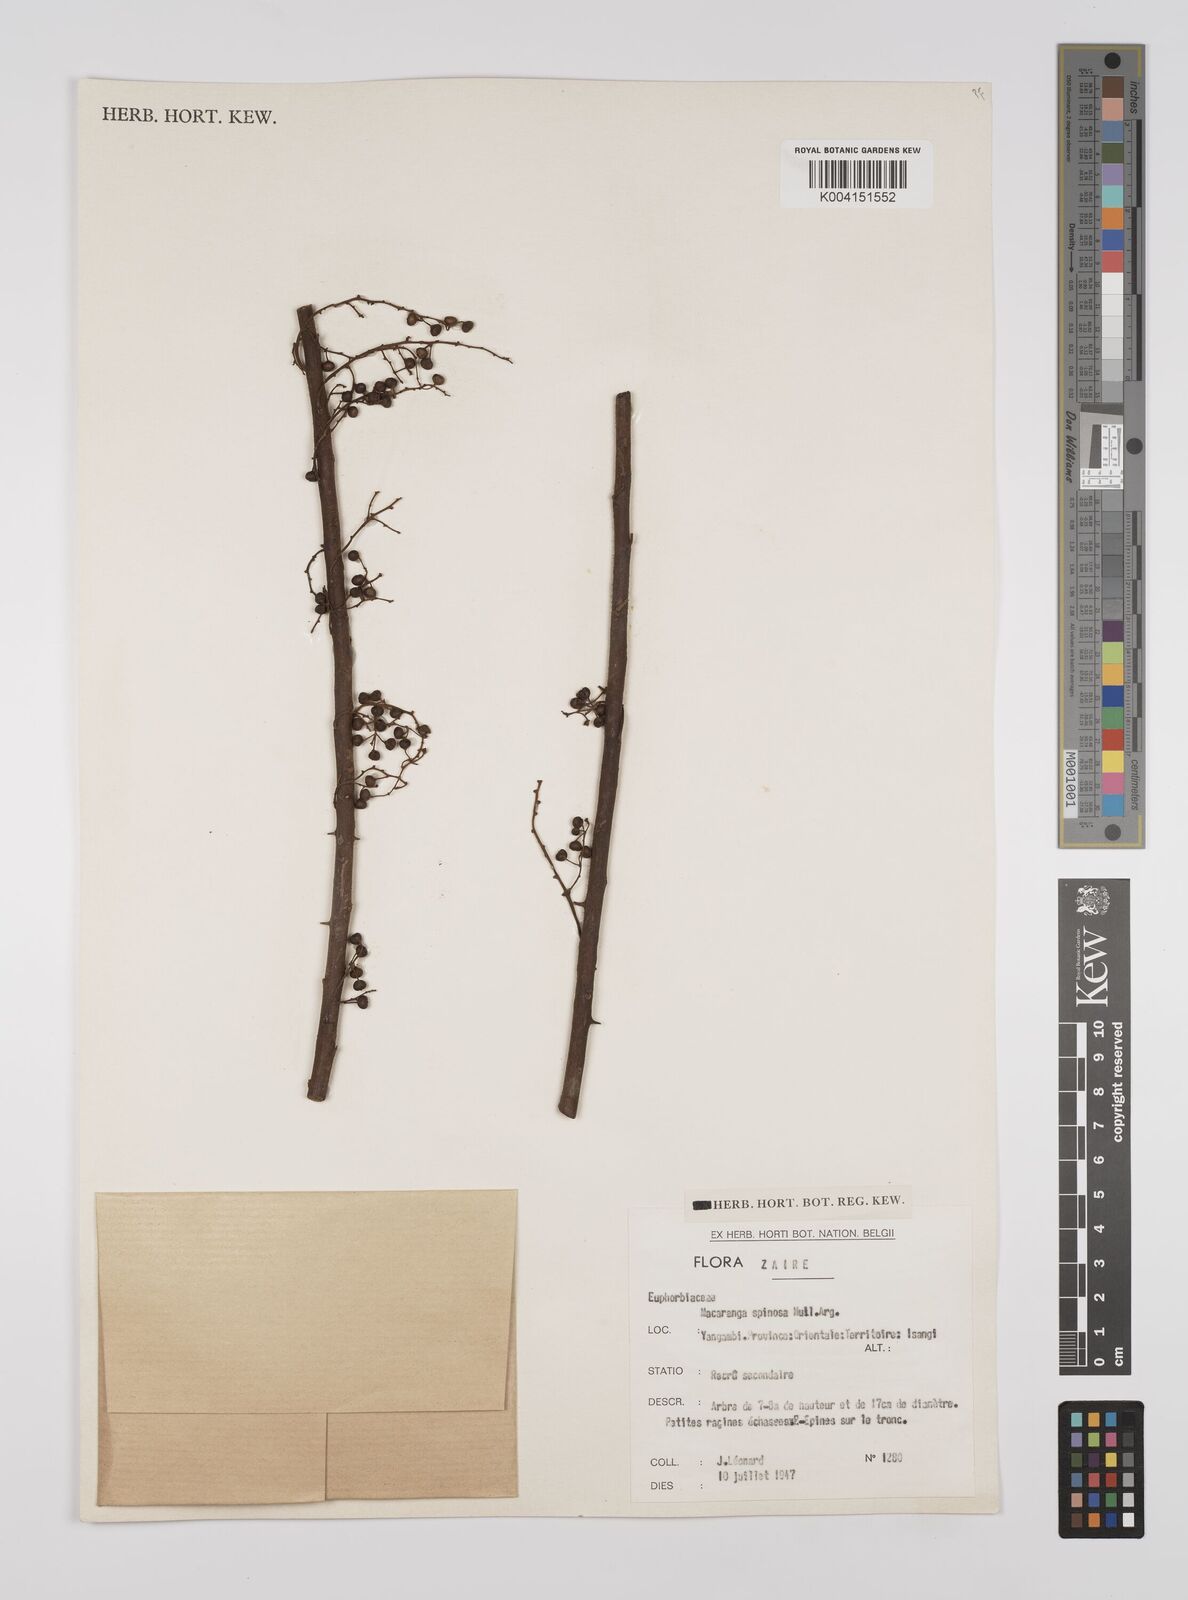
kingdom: Plantae
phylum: Tracheophyta
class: Magnoliopsida
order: Malpighiales
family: Euphorbiaceae
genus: Macaranga
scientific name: Macaranga spinosa
